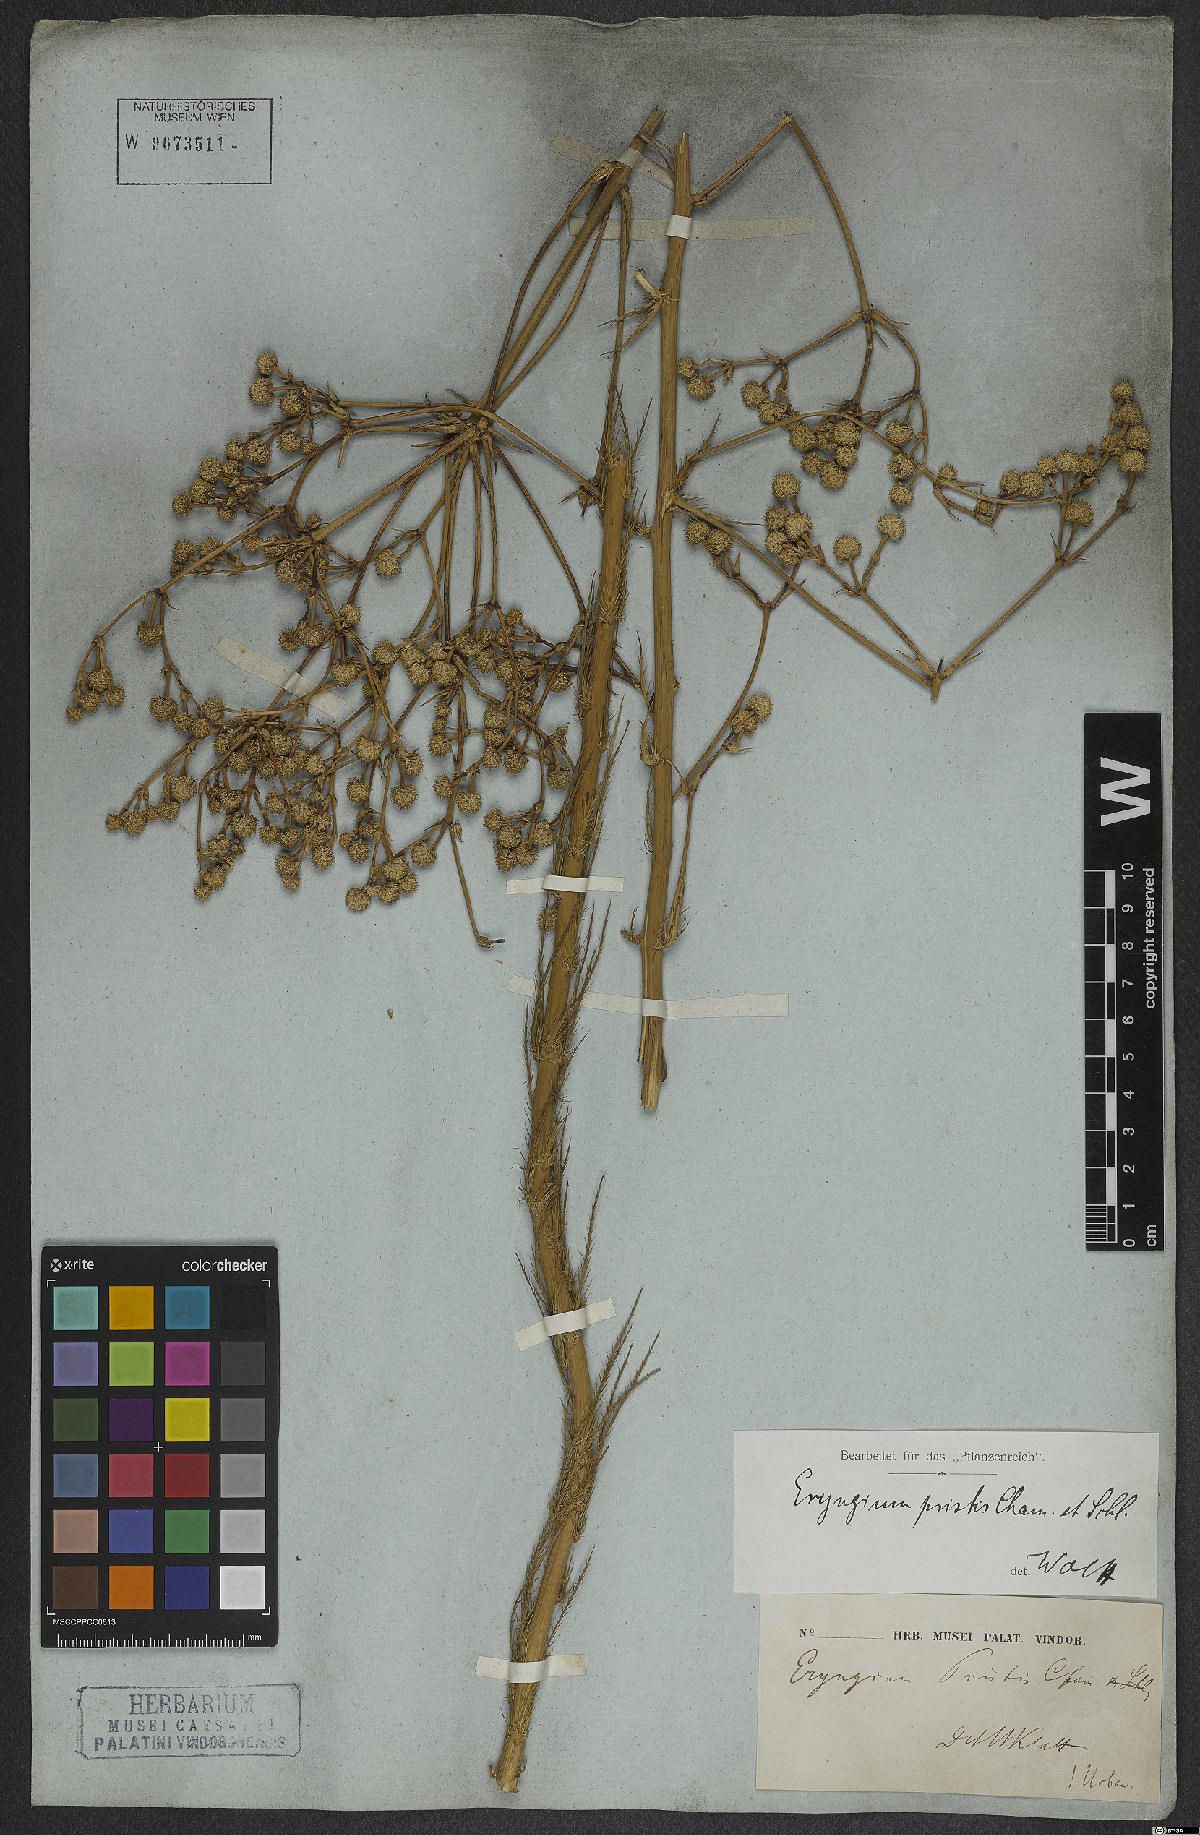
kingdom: Plantae
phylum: Tracheophyta
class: Magnoliopsida
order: Apiales
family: Apiaceae
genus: Eryngium
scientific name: Eryngium pristis
